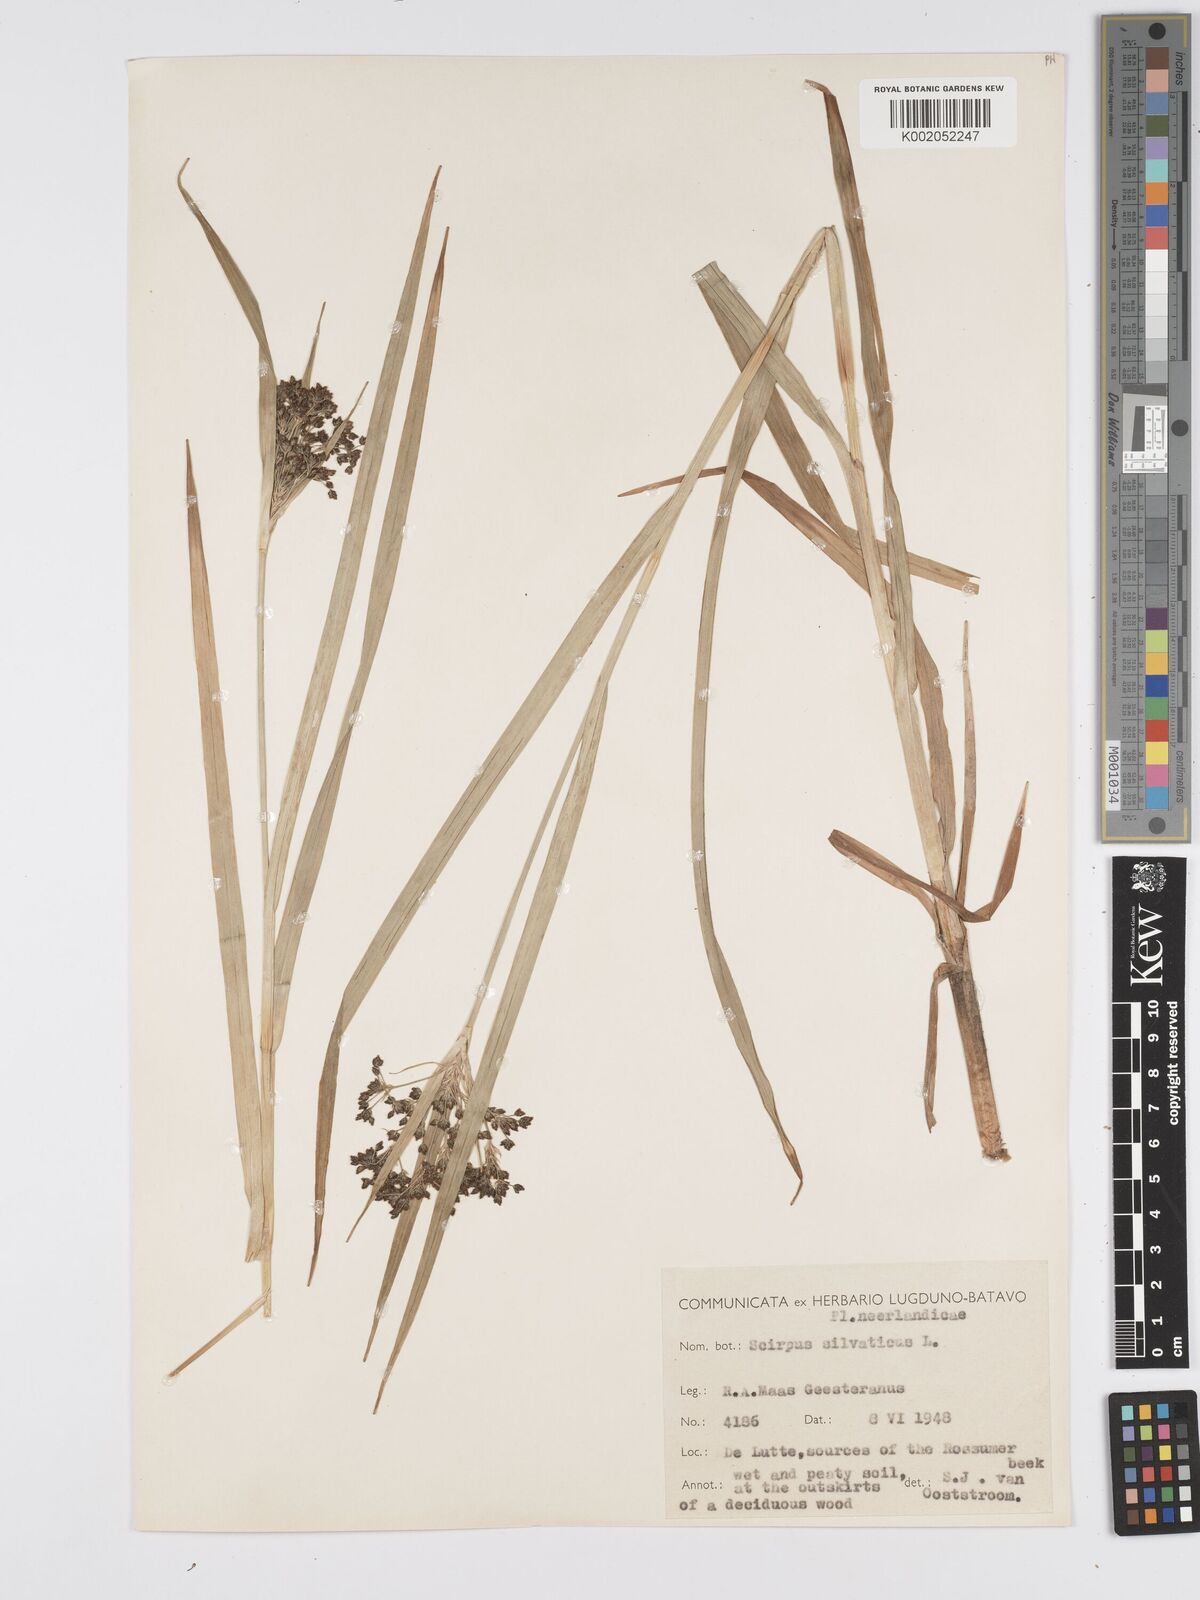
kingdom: Plantae
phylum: Tracheophyta
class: Liliopsida
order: Poales
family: Cyperaceae
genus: Scirpus
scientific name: Scirpus sylvaticus
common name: Wood club-rush
